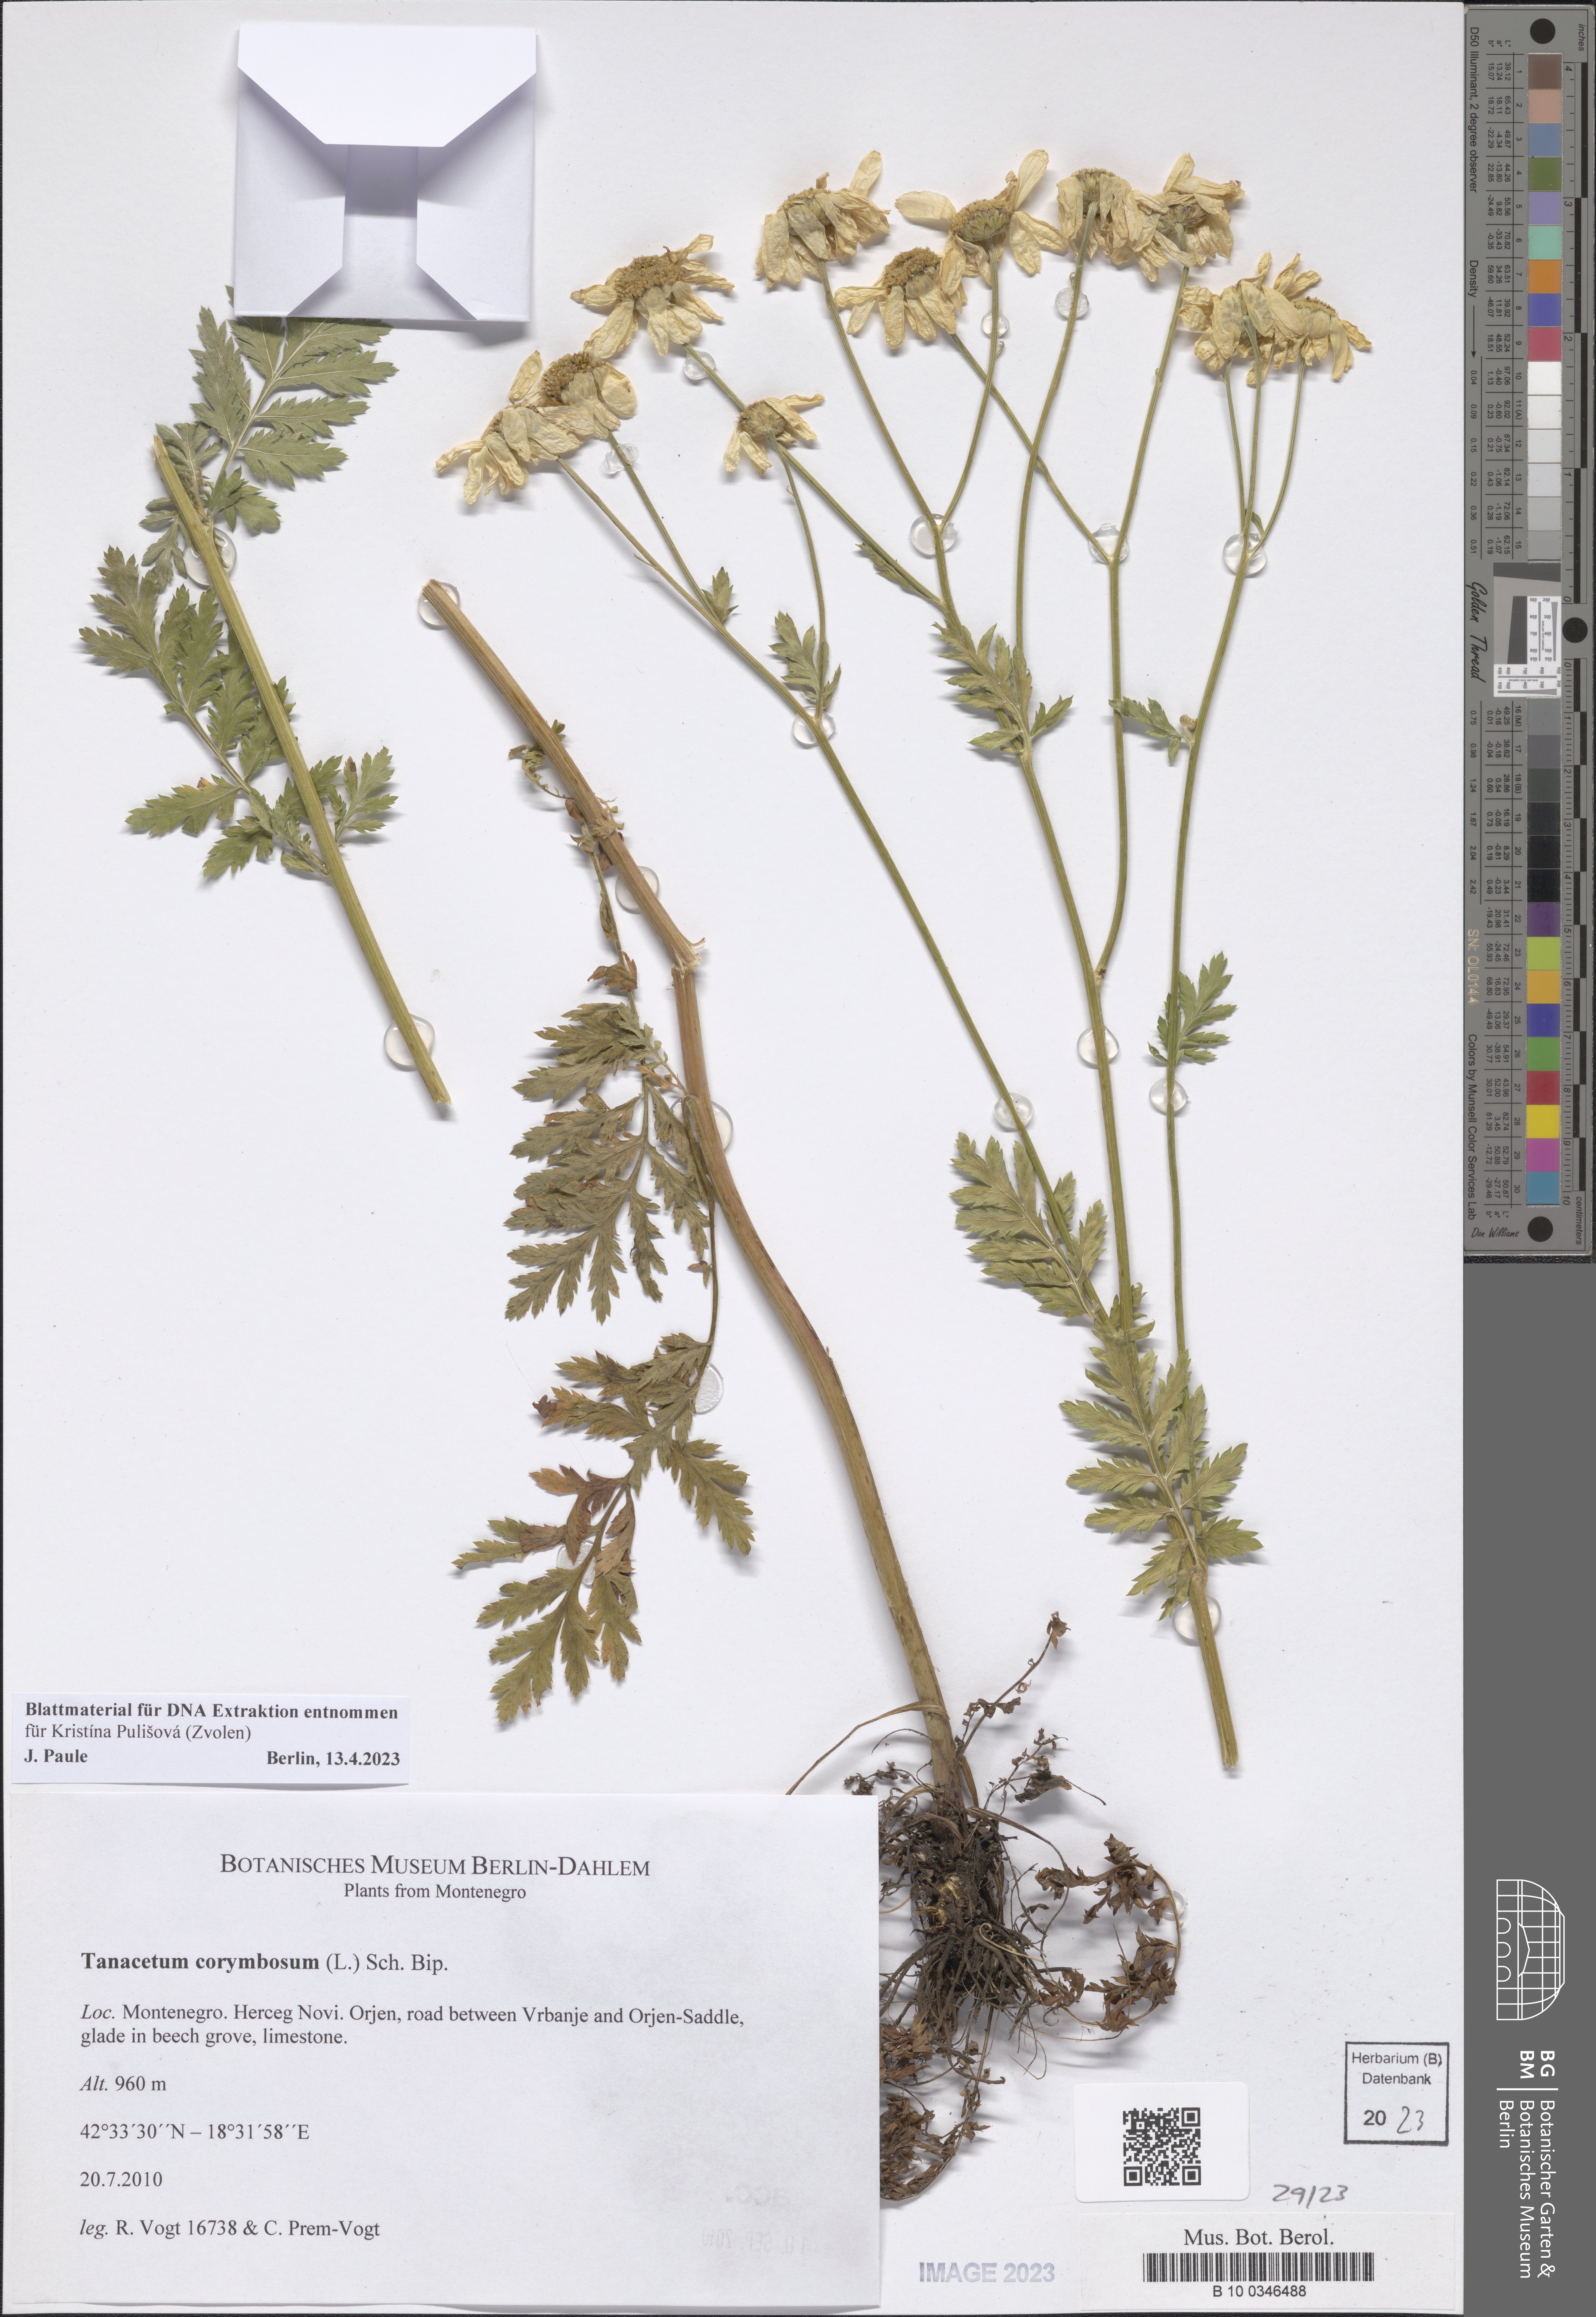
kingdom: Plantae
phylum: Tracheophyta
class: Magnoliopsida
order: Asterales
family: Asteraceae
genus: Tanacetum
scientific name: Tanacetum corymbosum
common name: Scentless feverfew
